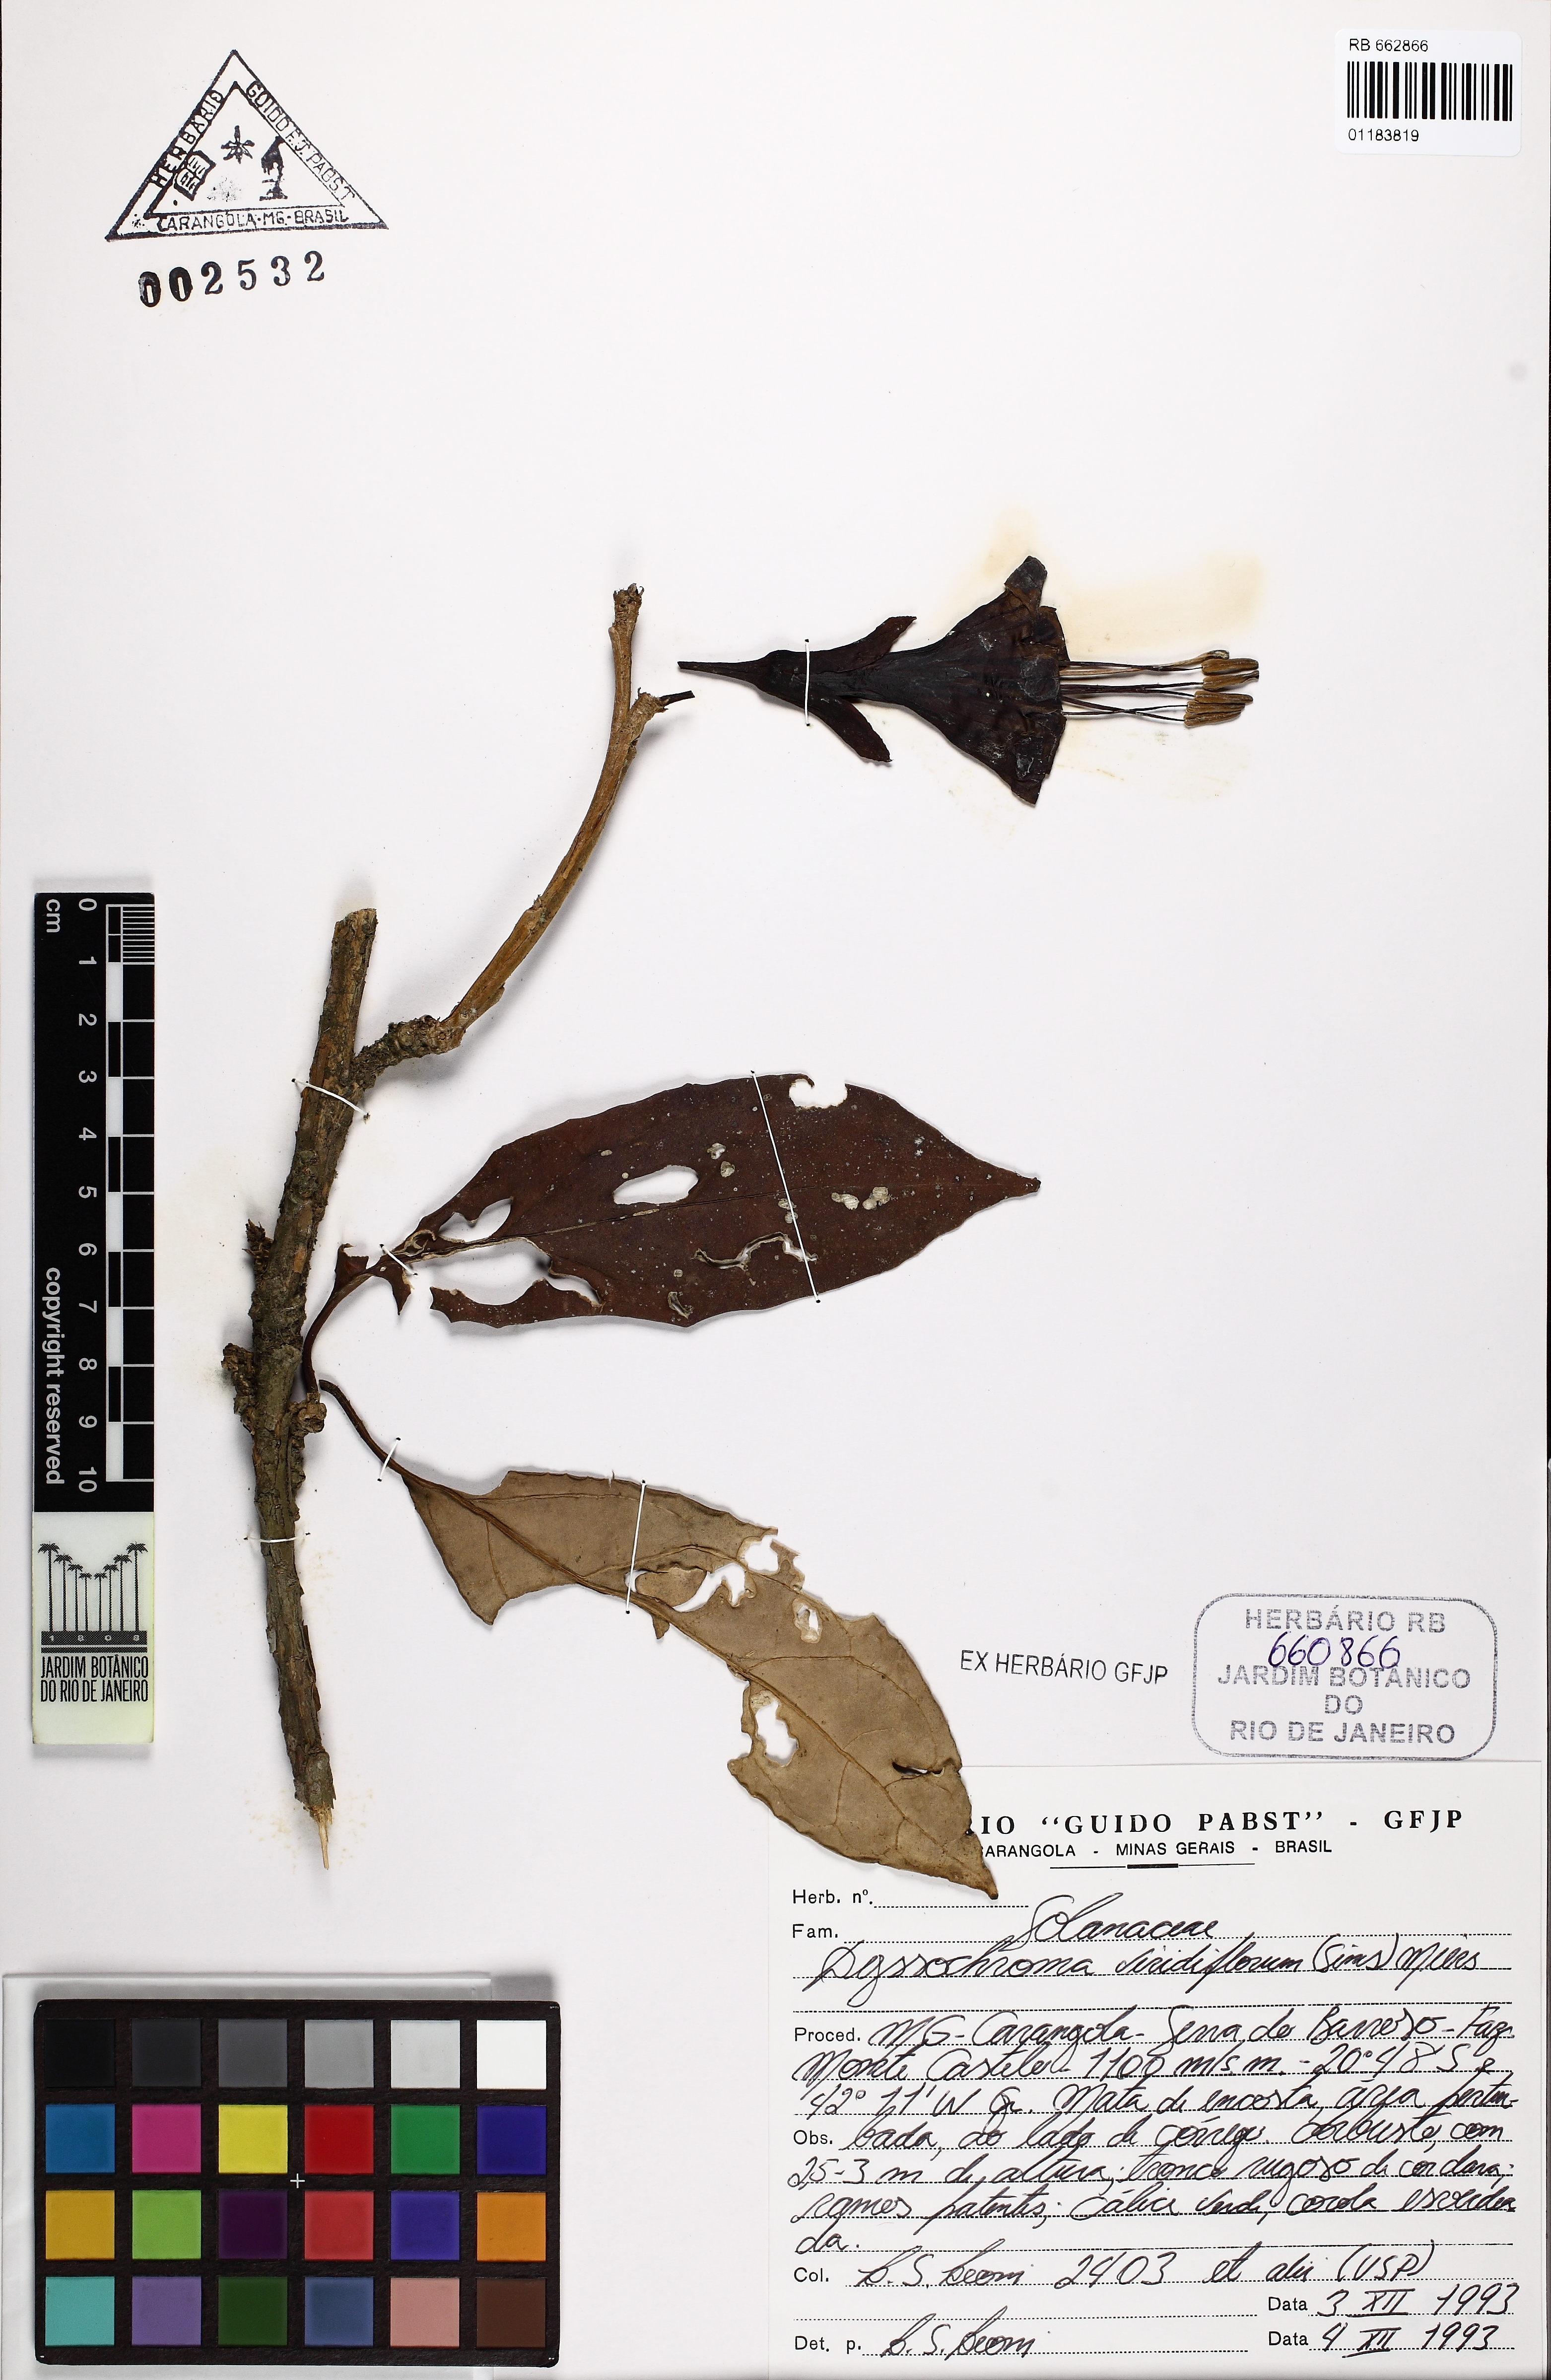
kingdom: Plantae
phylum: Tracheophyta
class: Magnoliopsida
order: Solanales
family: Solanaceae
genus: Dyssochroma
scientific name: Dyssochroma viridiflorum
